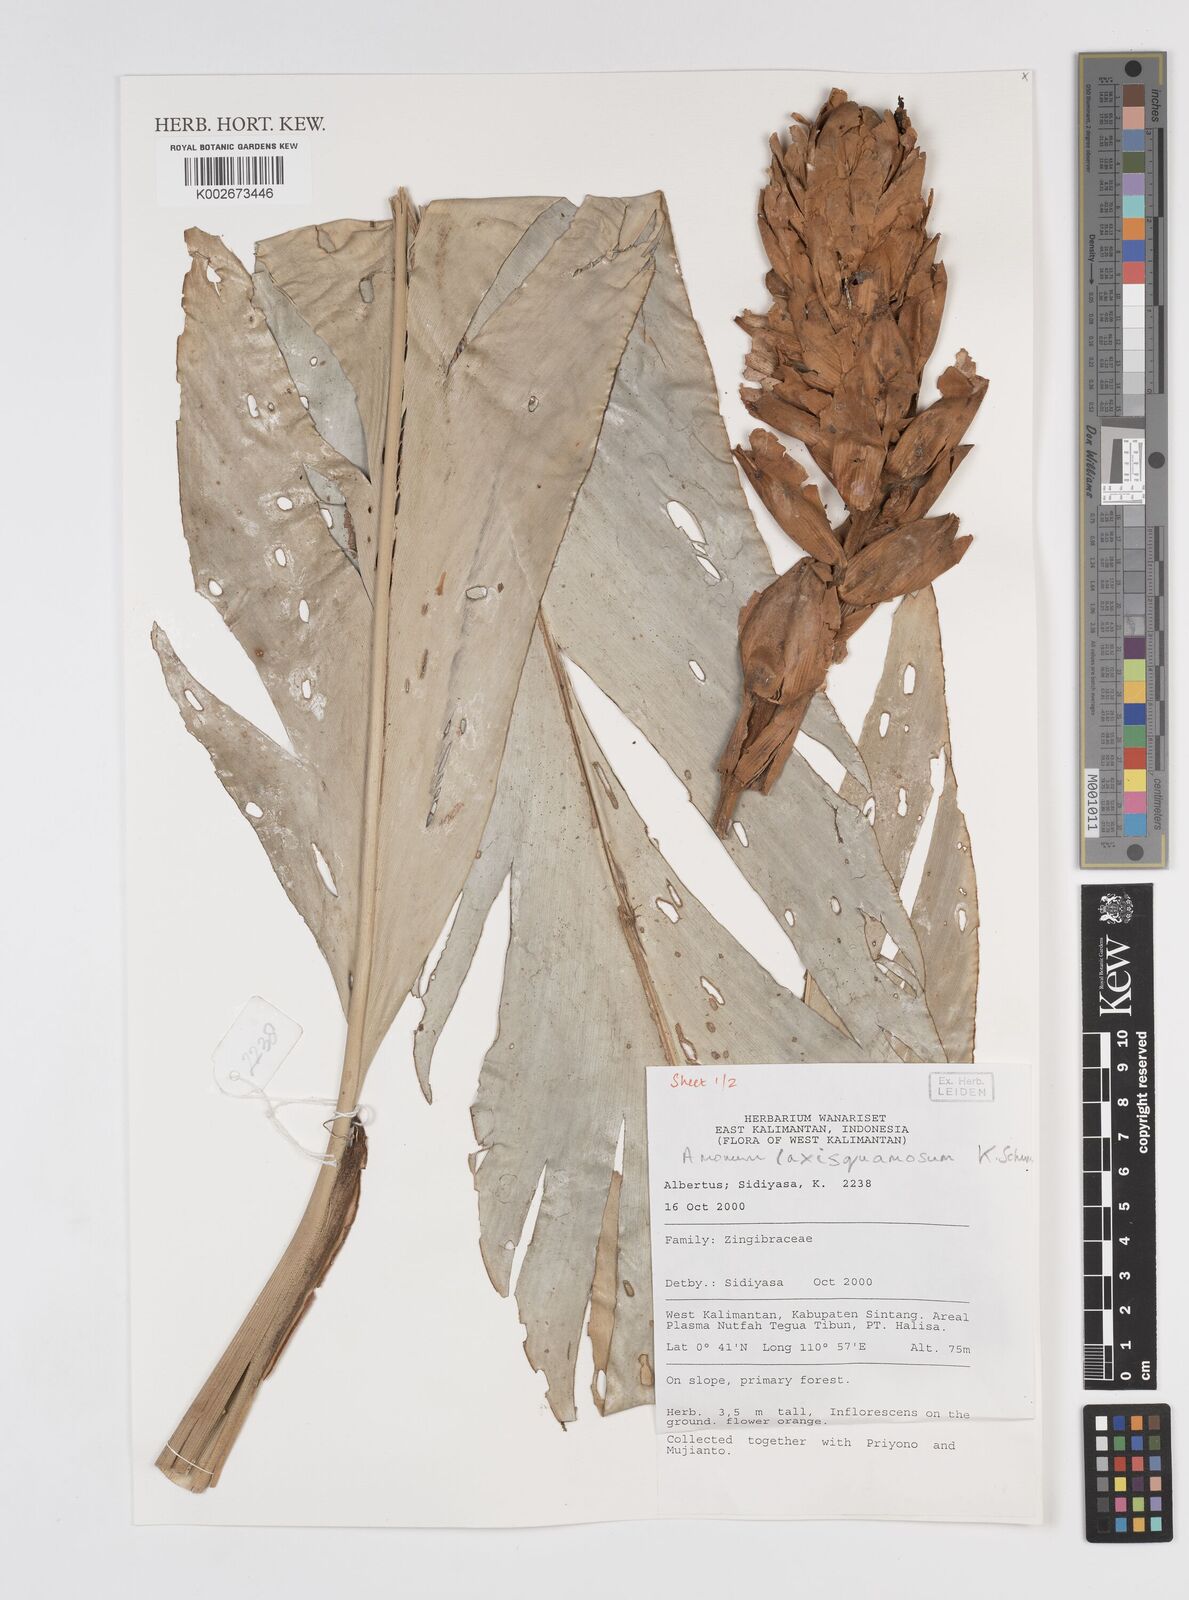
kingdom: Plantae
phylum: Tracheophyta
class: Liliopsida
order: Zingiberales
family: Zingiberaceae
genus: Sundamomum
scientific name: Sundamomum laxesquamosum
